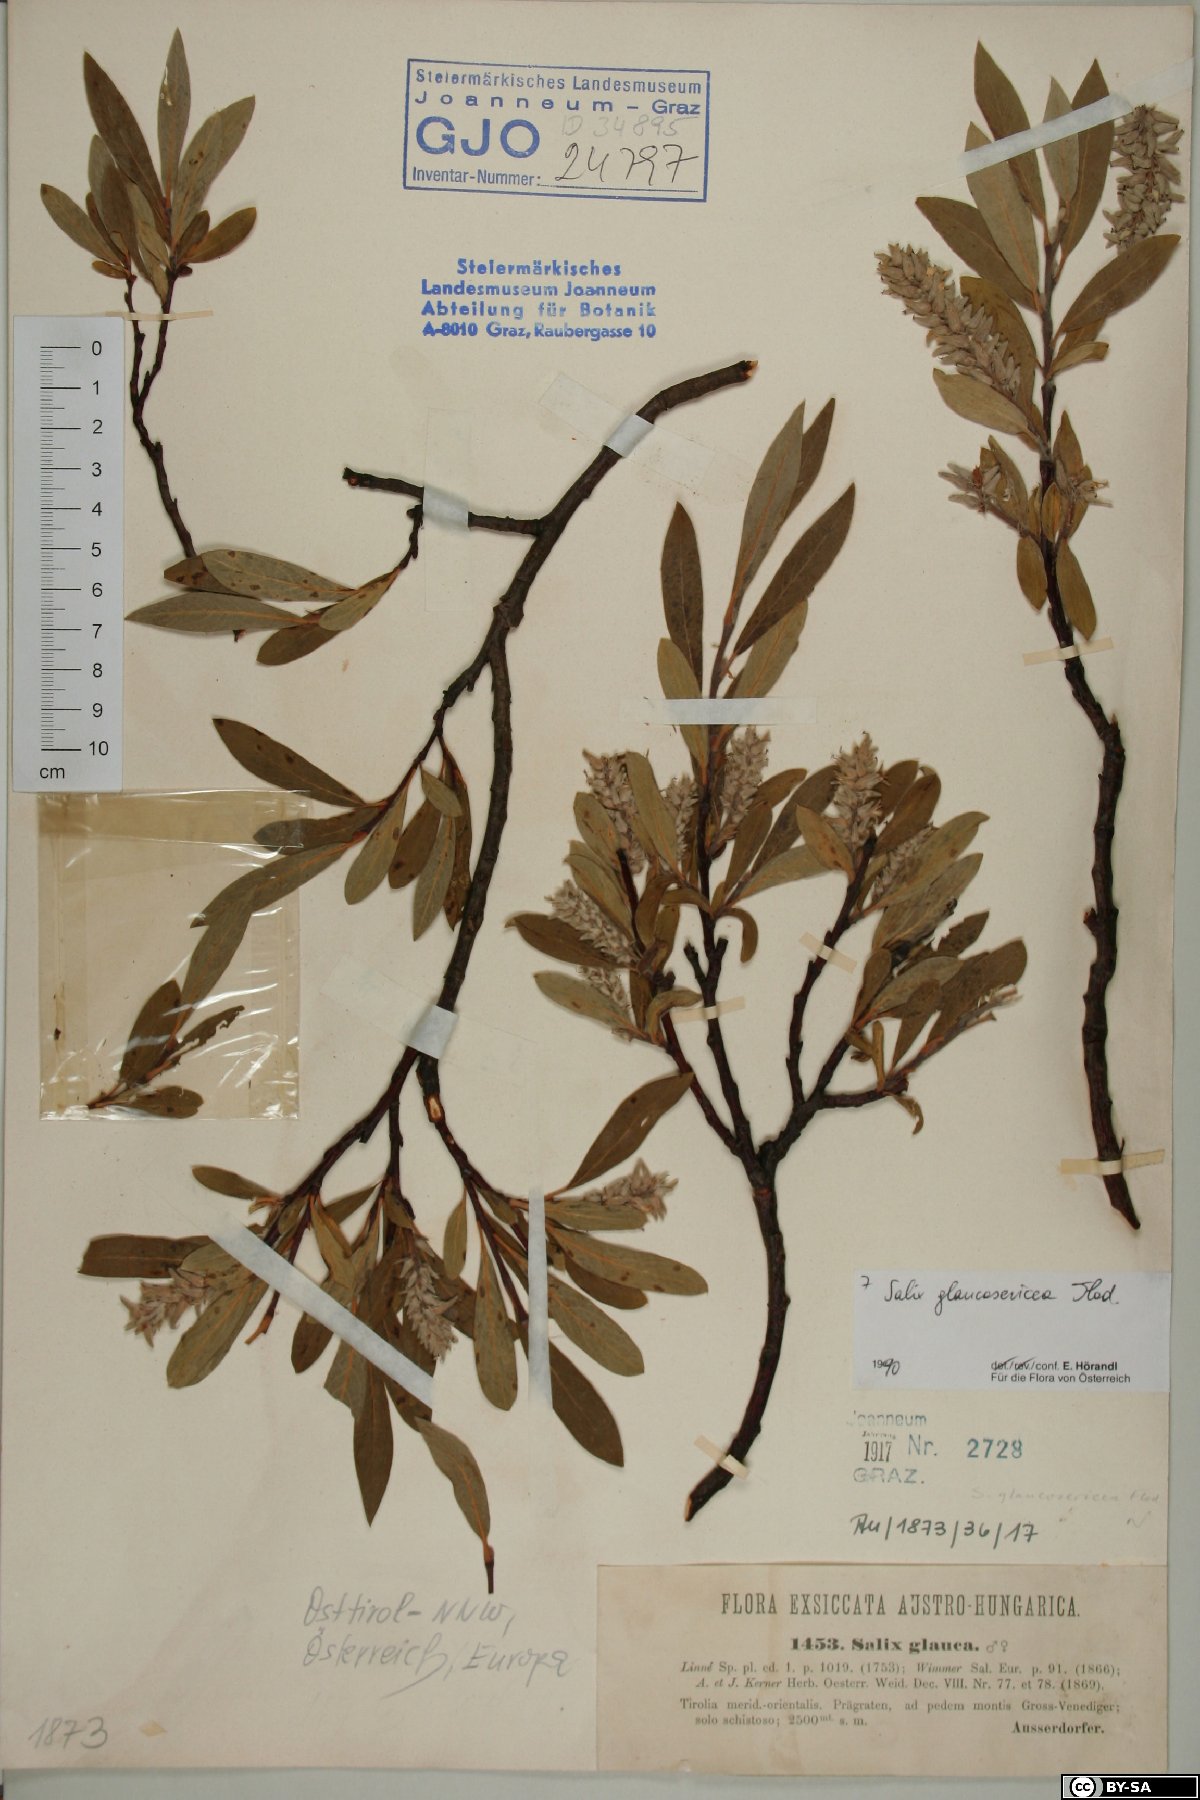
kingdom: Plantae
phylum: Tracheophyta
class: Magnoliopsida
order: Malpighiales
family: Salicaceae
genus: Salix
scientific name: Salix glaucosericea
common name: Alpine gray willow
